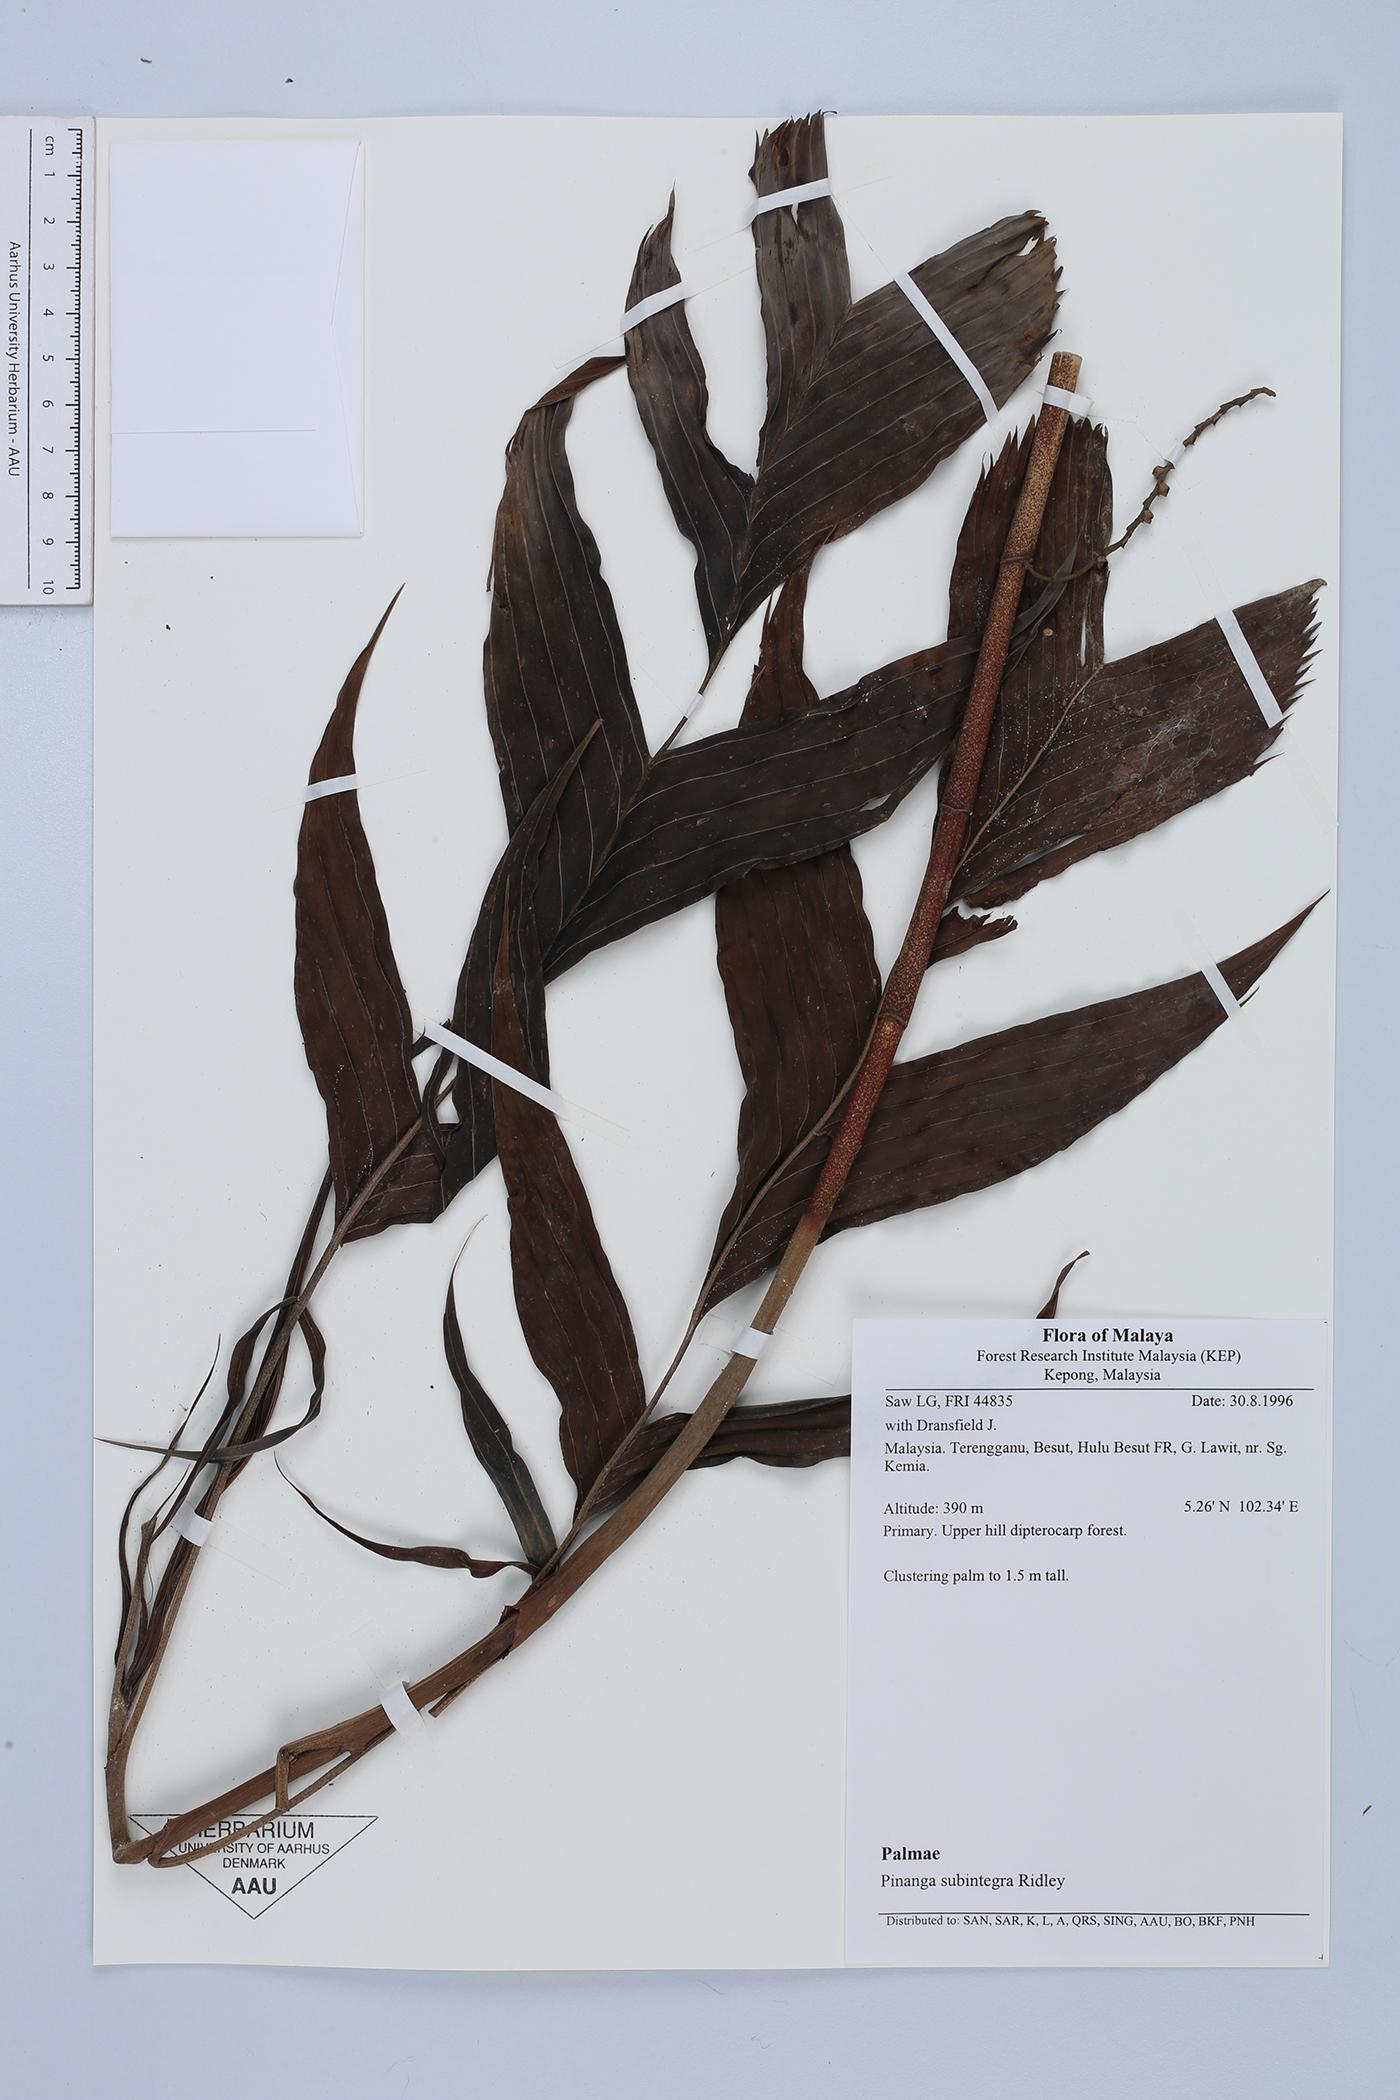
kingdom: Plantae
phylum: Tracheophyta
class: Liliopsida
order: Arecales
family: Arecaceae
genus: Pinanga
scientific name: Pinanga subintegra
